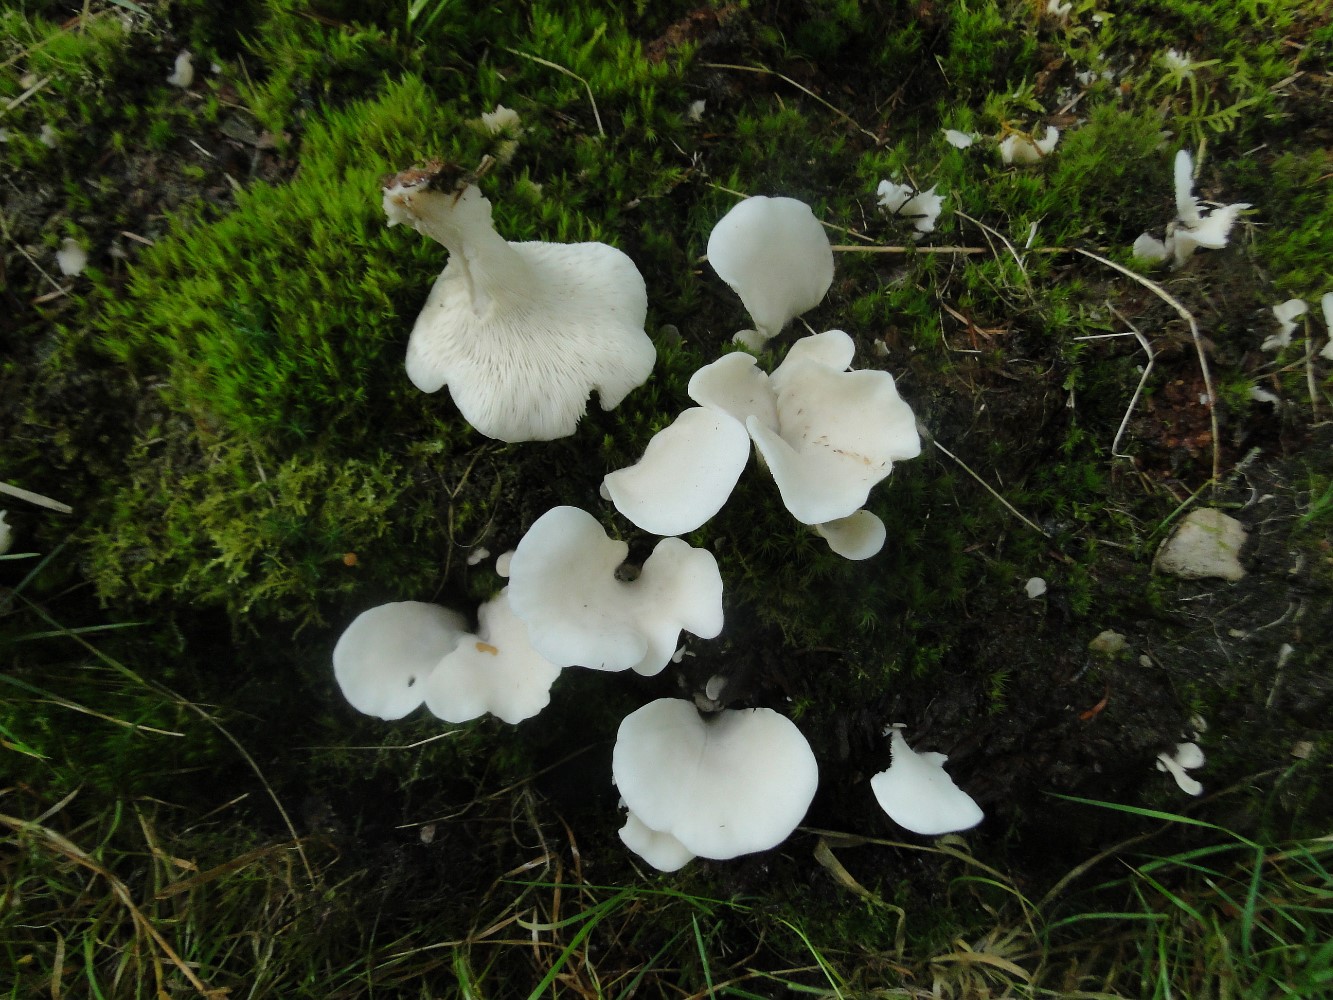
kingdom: Fungi
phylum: Basidiomycota
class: Agaricomycetes
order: Agaricales
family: Marasmiaceae
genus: Pleurocybella
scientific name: Pleurocybella porrigens
